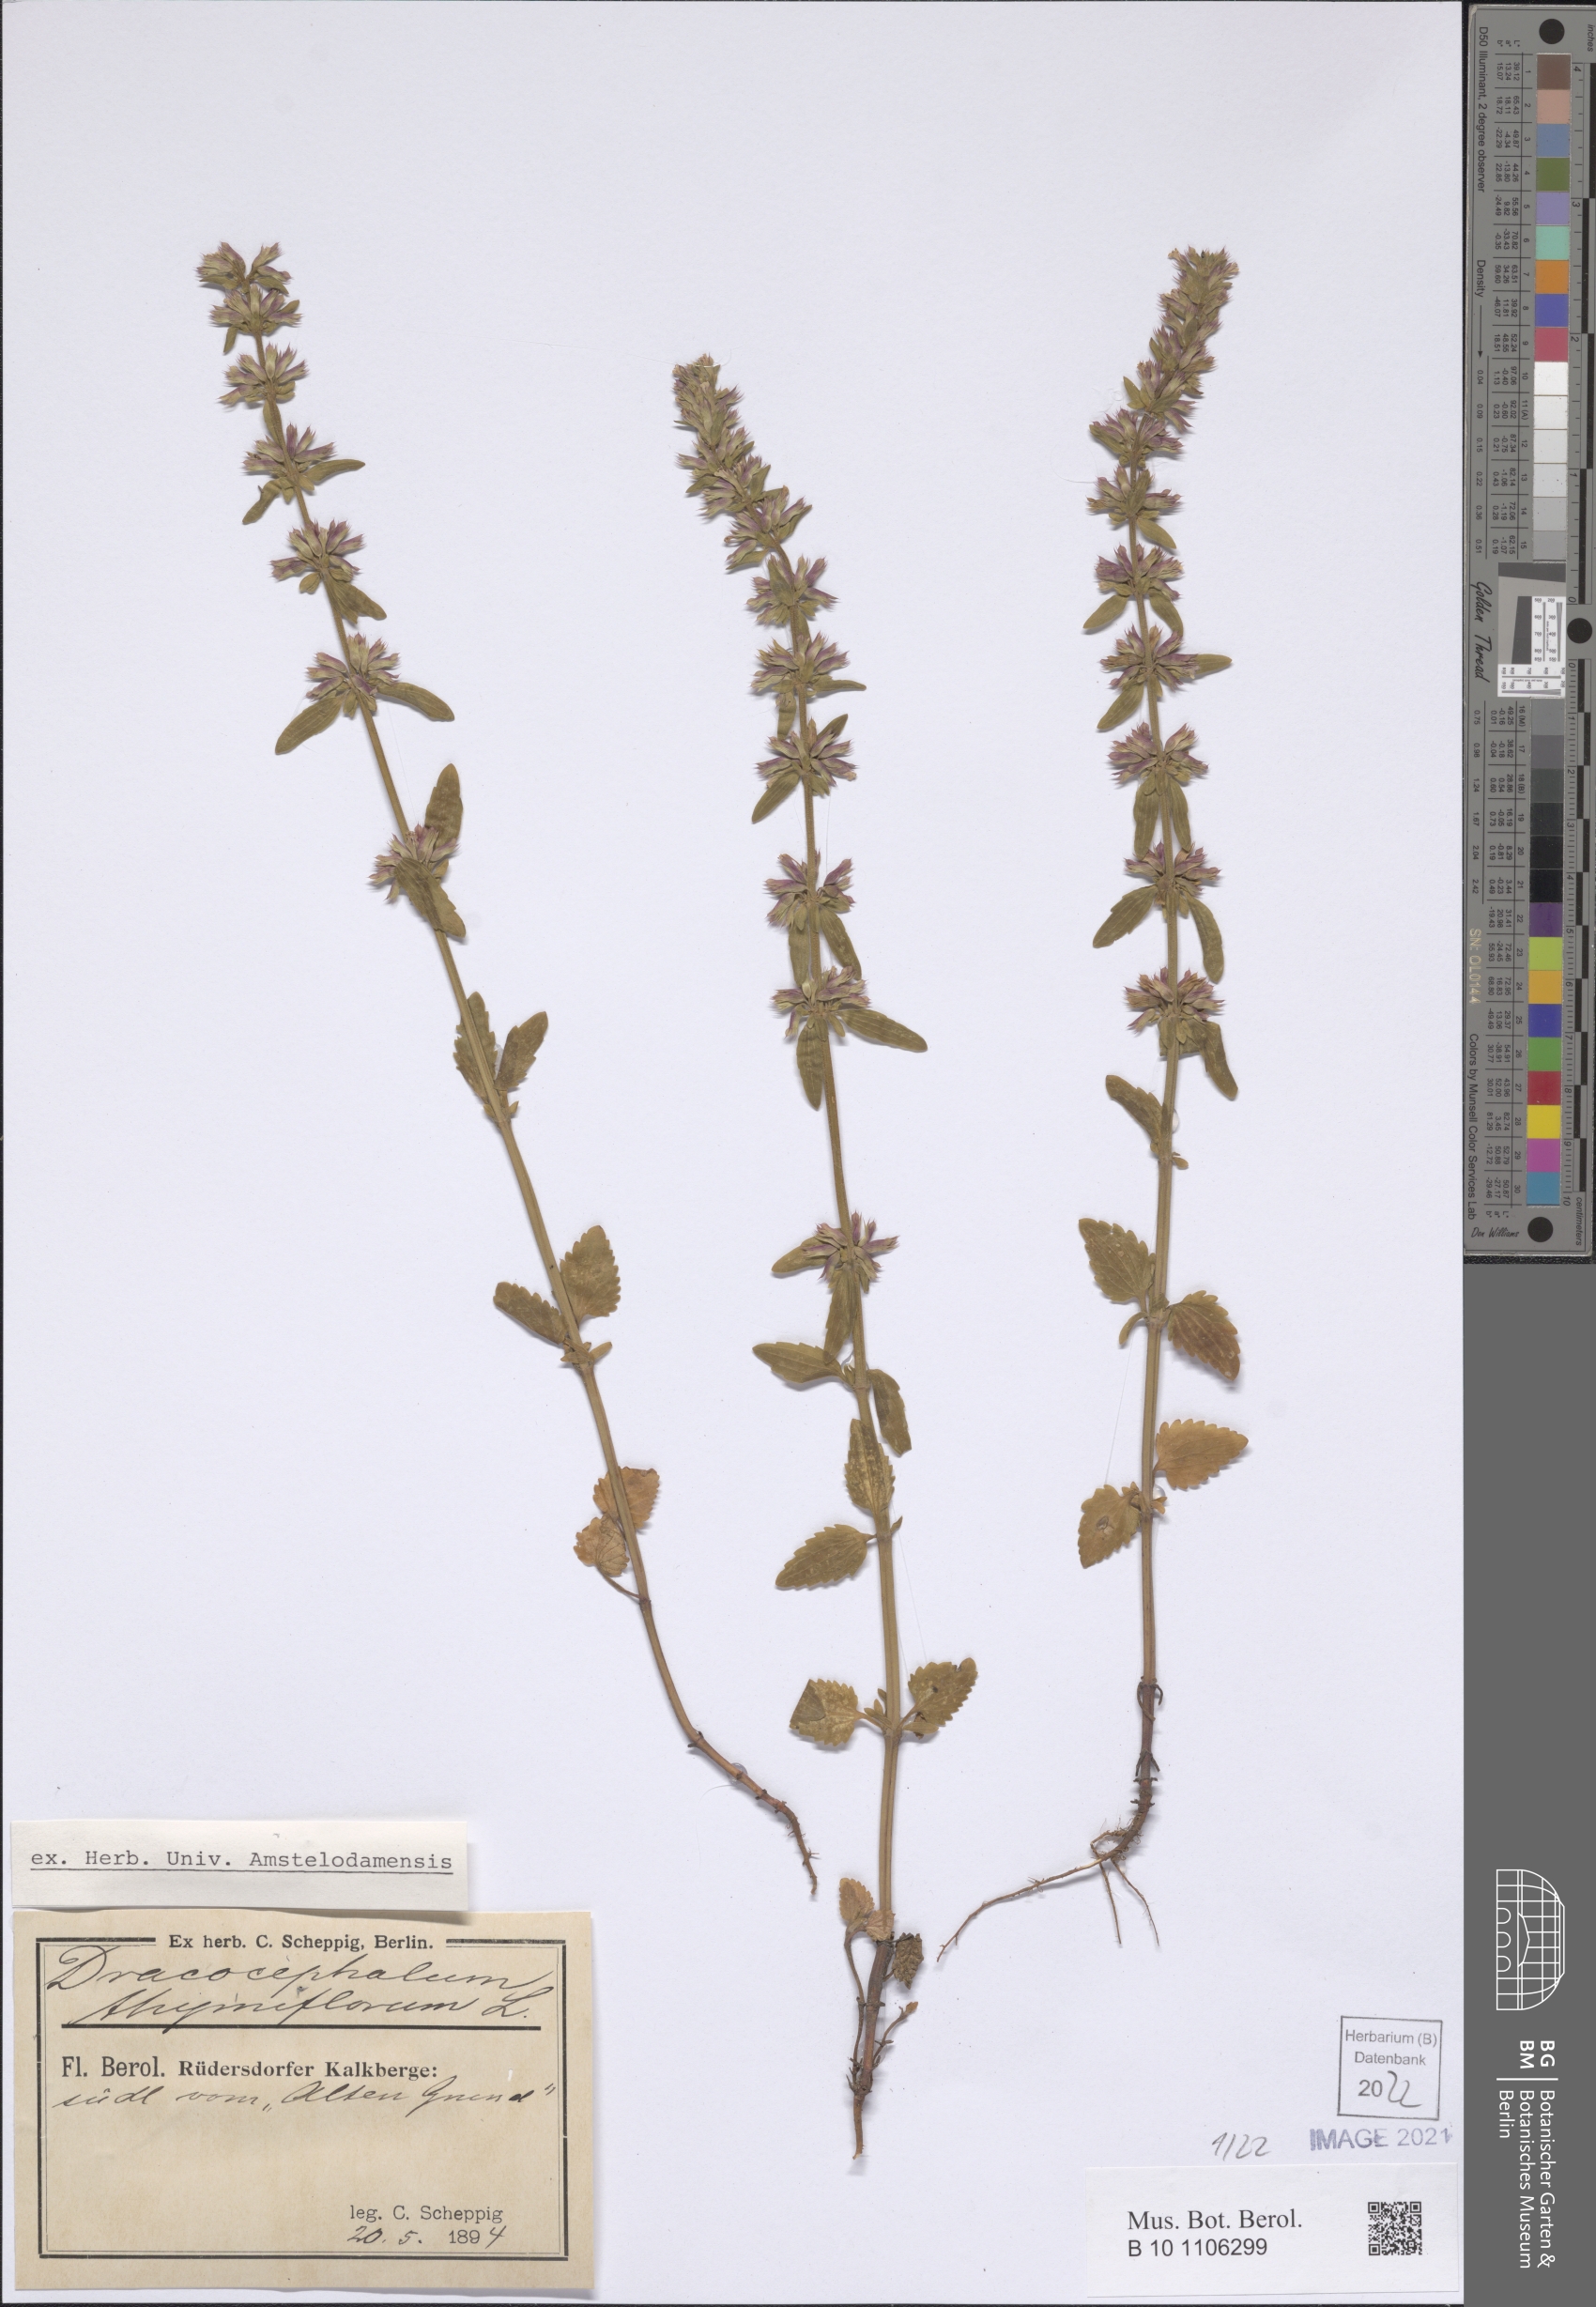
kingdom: Plantae
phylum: Tracheophyta
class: Magnoliopsida
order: Lamiales
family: Lamiaceae
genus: Dracocephalum
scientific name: Dracocephalum thymiflorum
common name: Thymeleaf dragonhead
